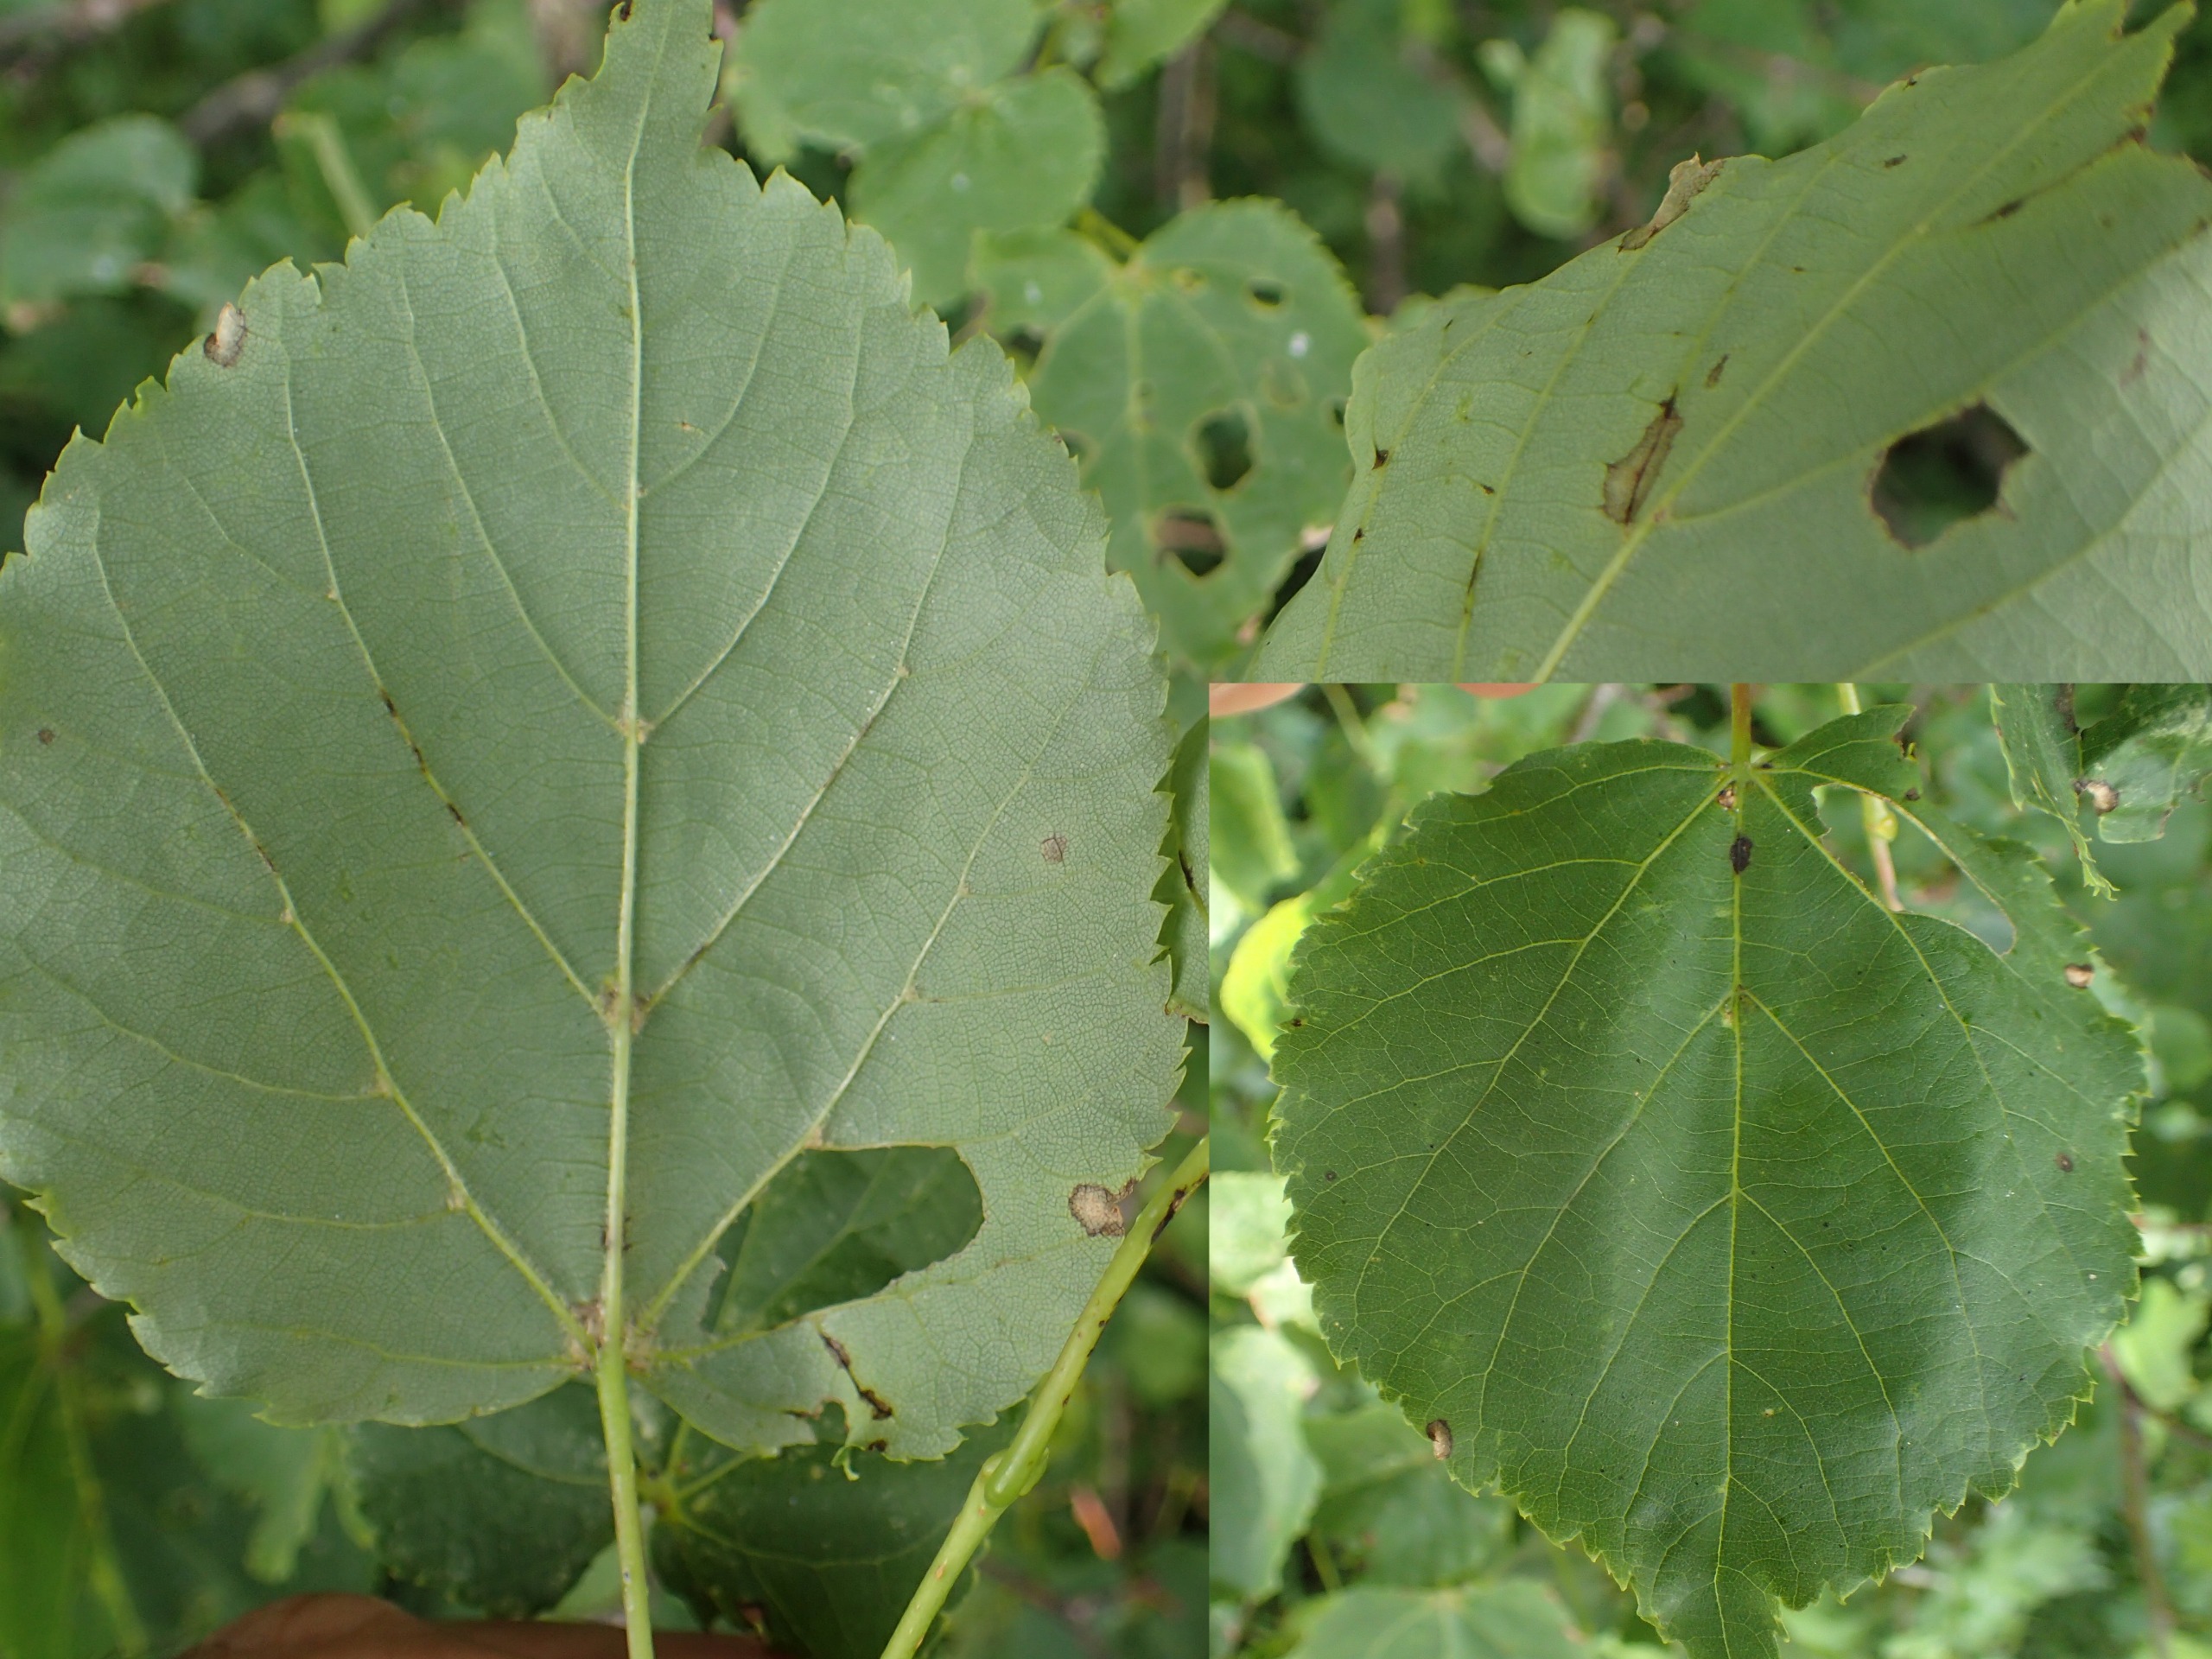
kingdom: Plantae
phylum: Tracheophyta
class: Magnoliopsida
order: Malvales
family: Malvaceae
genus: Tilia
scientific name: Tilia cordata
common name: Småbladet lind
